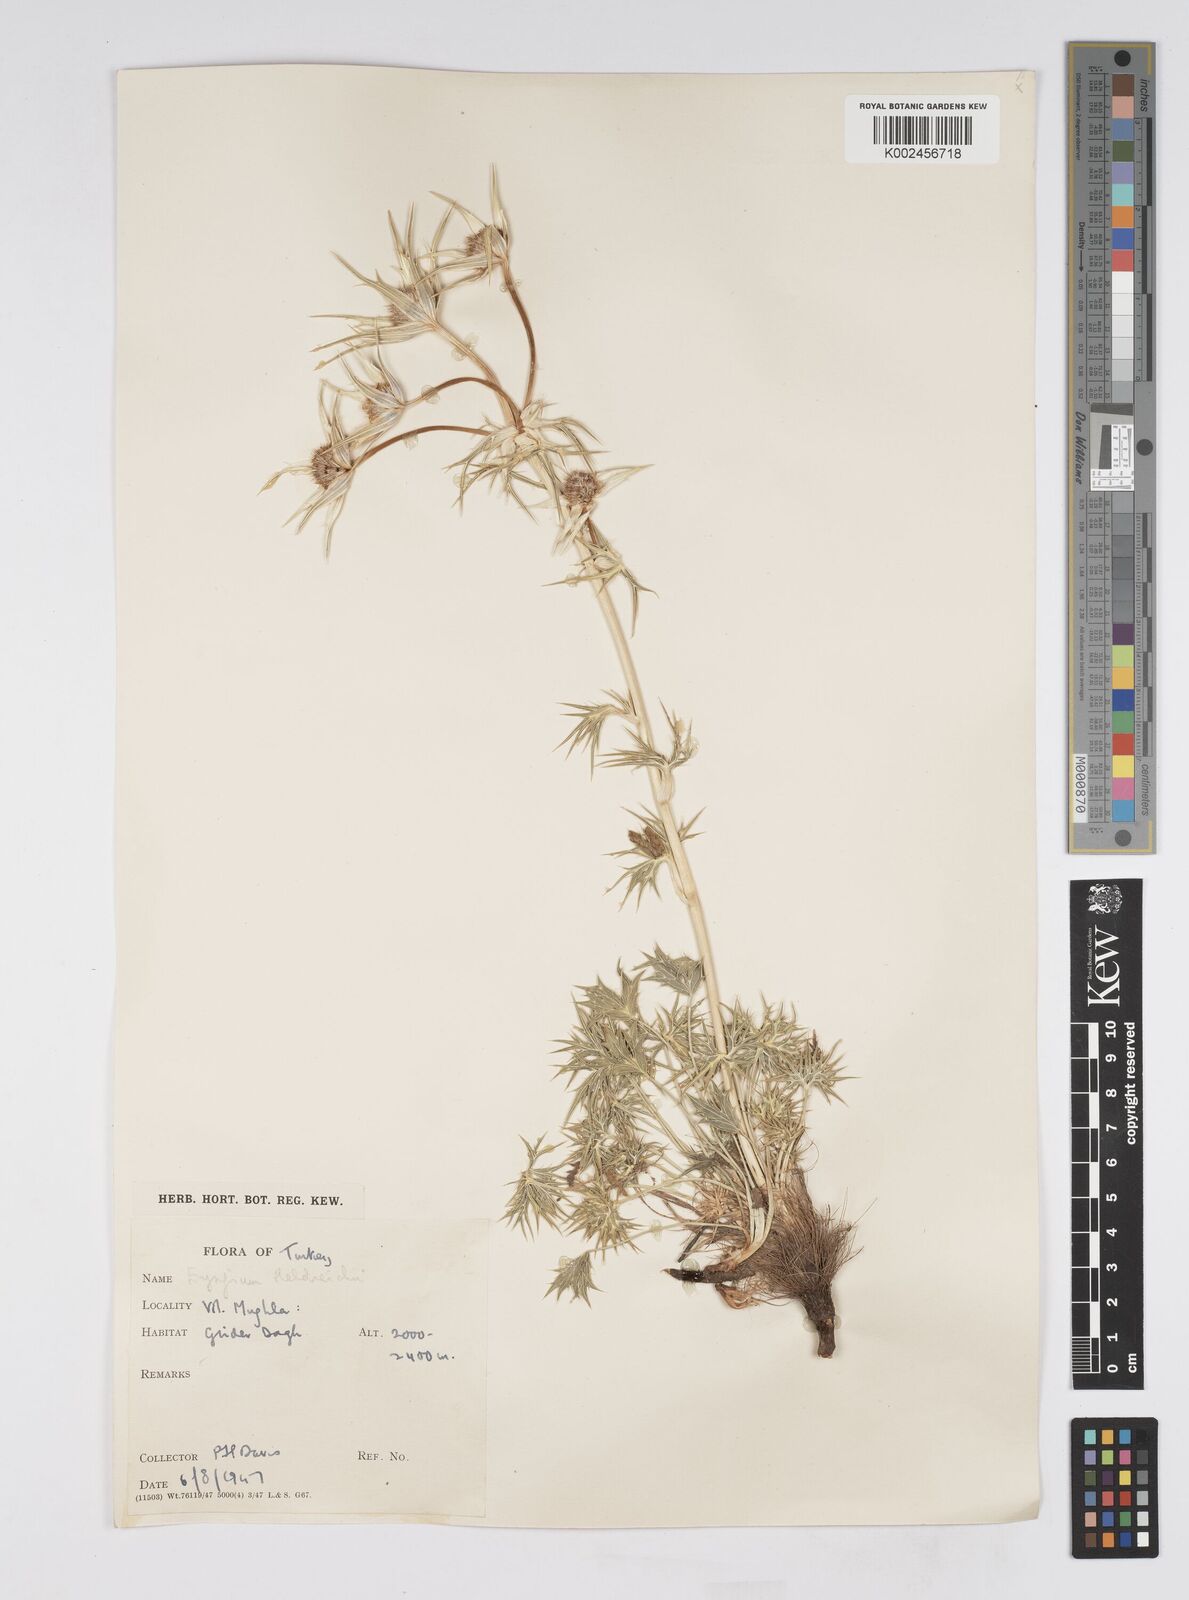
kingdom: Plantae
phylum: Tracheophyta
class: Magnoliopsida
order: Apiales
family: Apiaceae
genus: Eryngium
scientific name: Eryngium heldreichii
